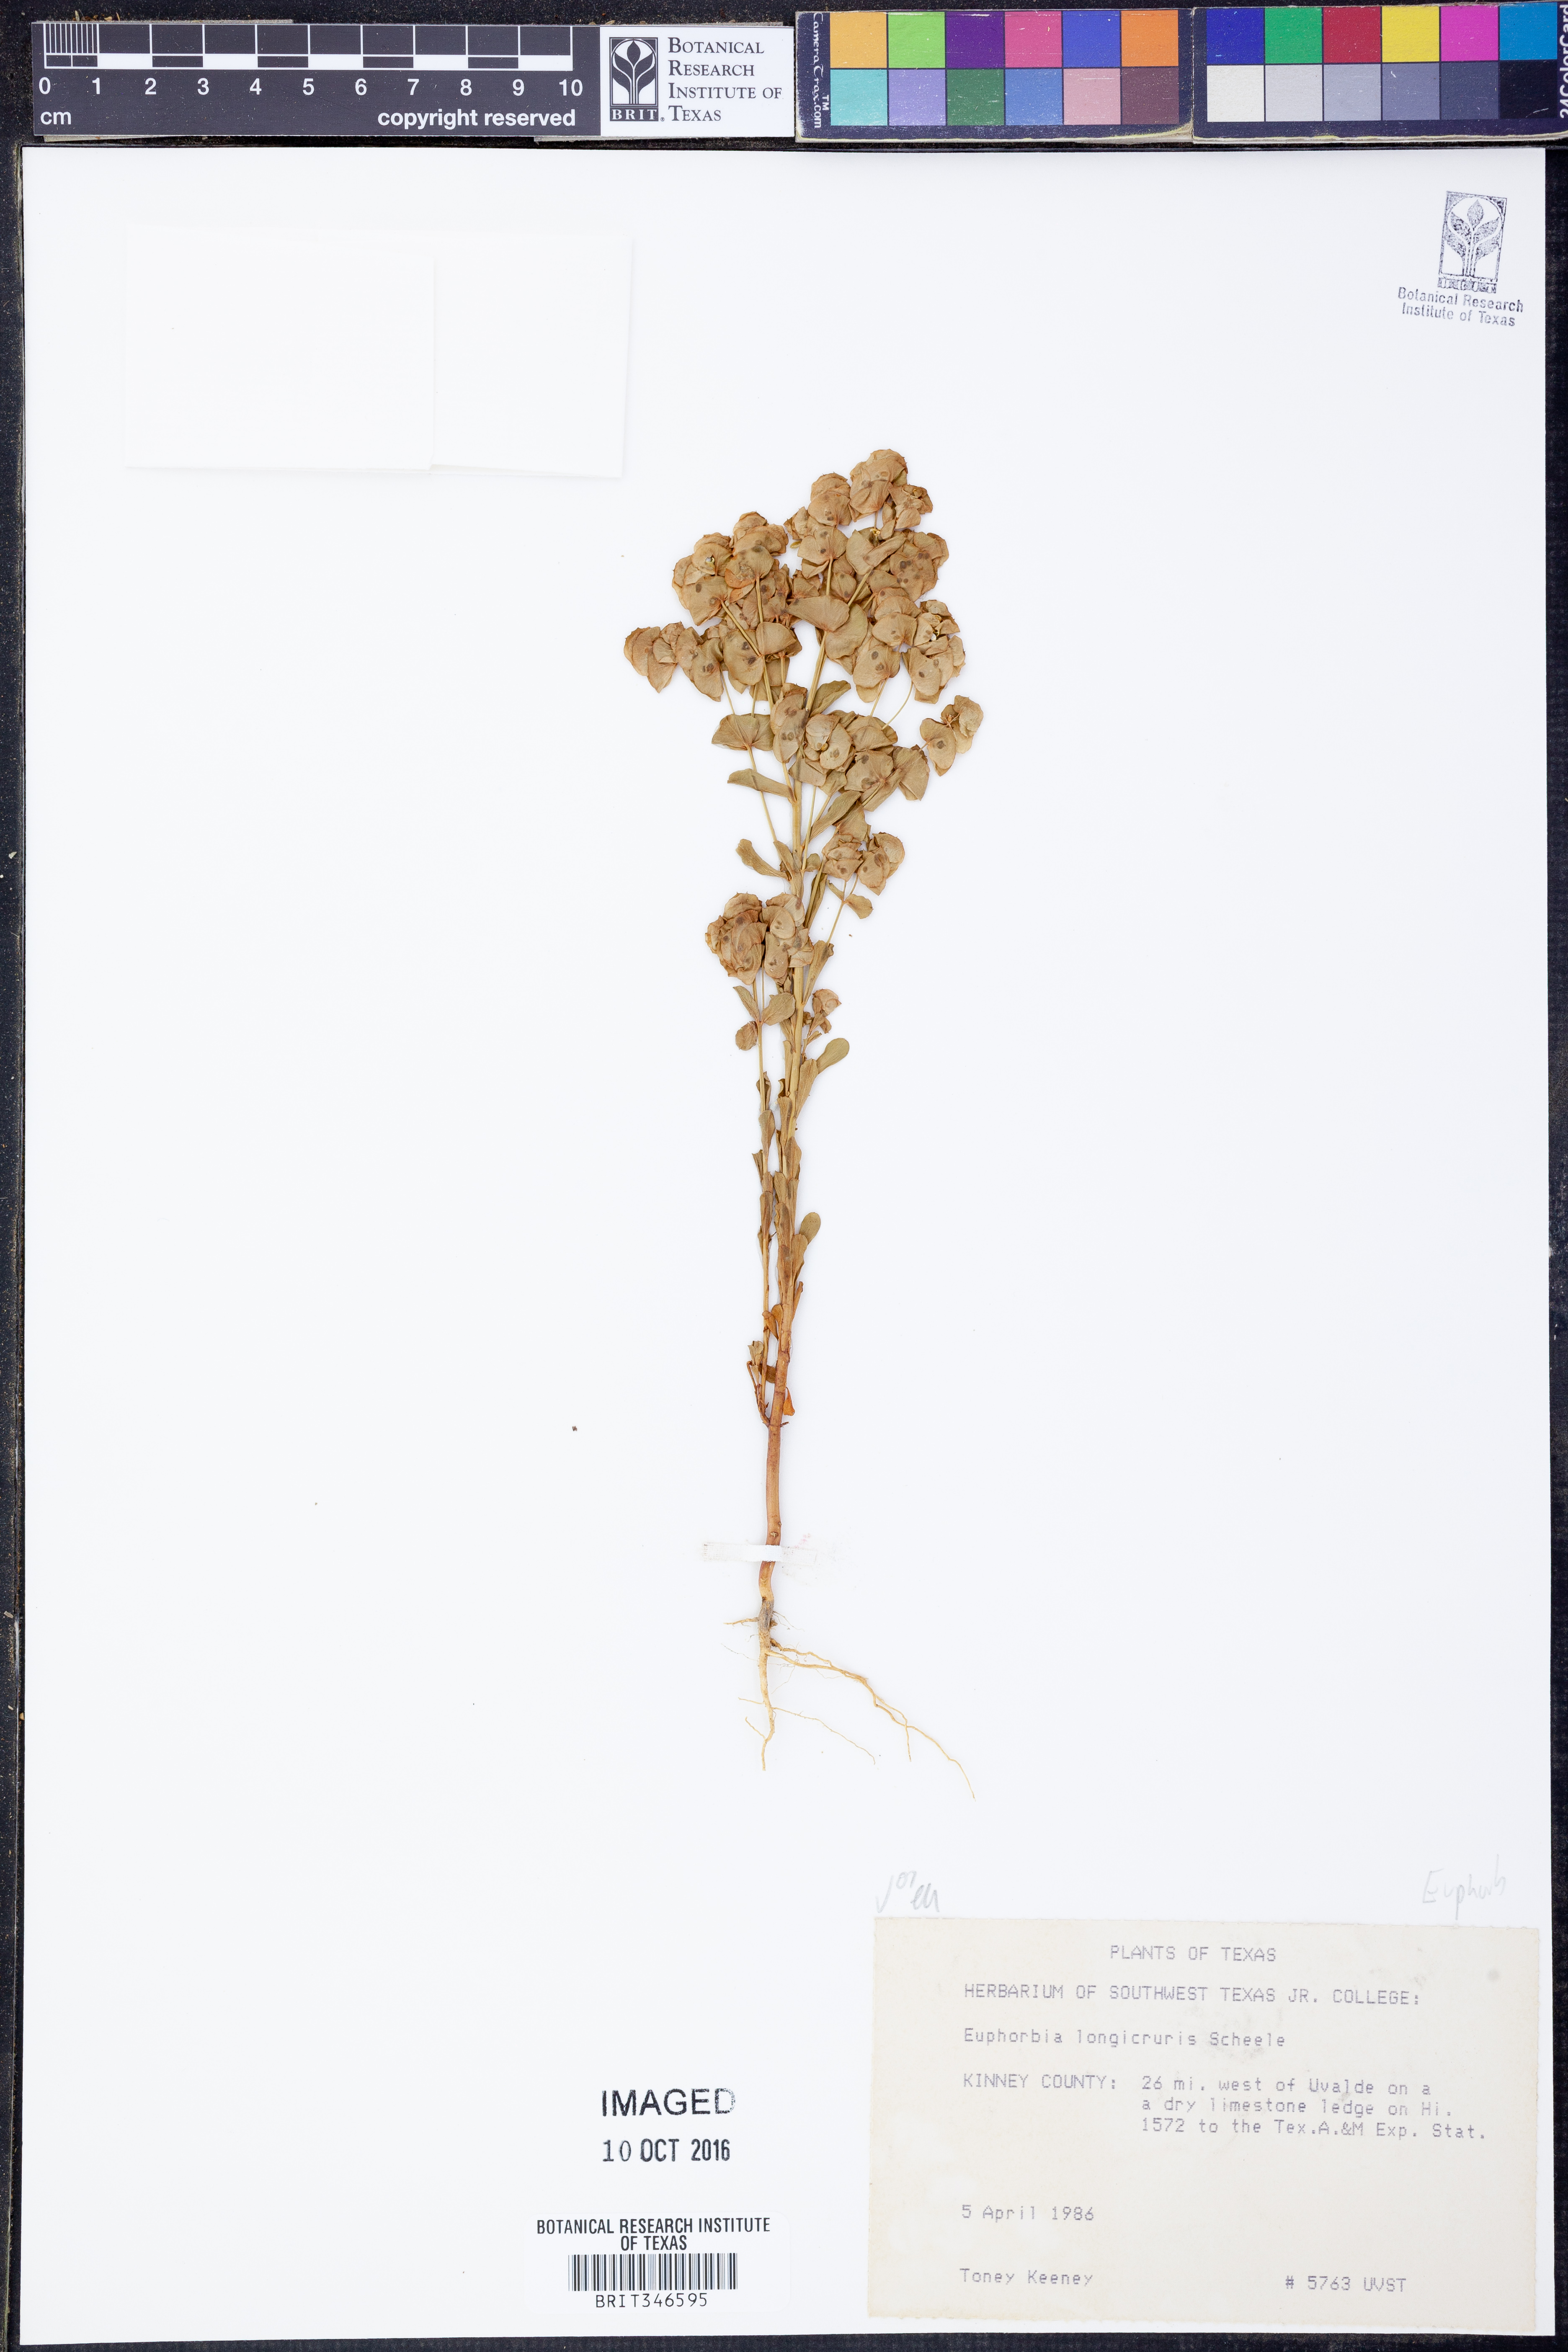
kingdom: Plantae
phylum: Tracheophyta
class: Magnoliopsida
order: Malpighiales
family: Euphorbiaceae
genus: Euphorbia
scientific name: Euphorbia longicruris
